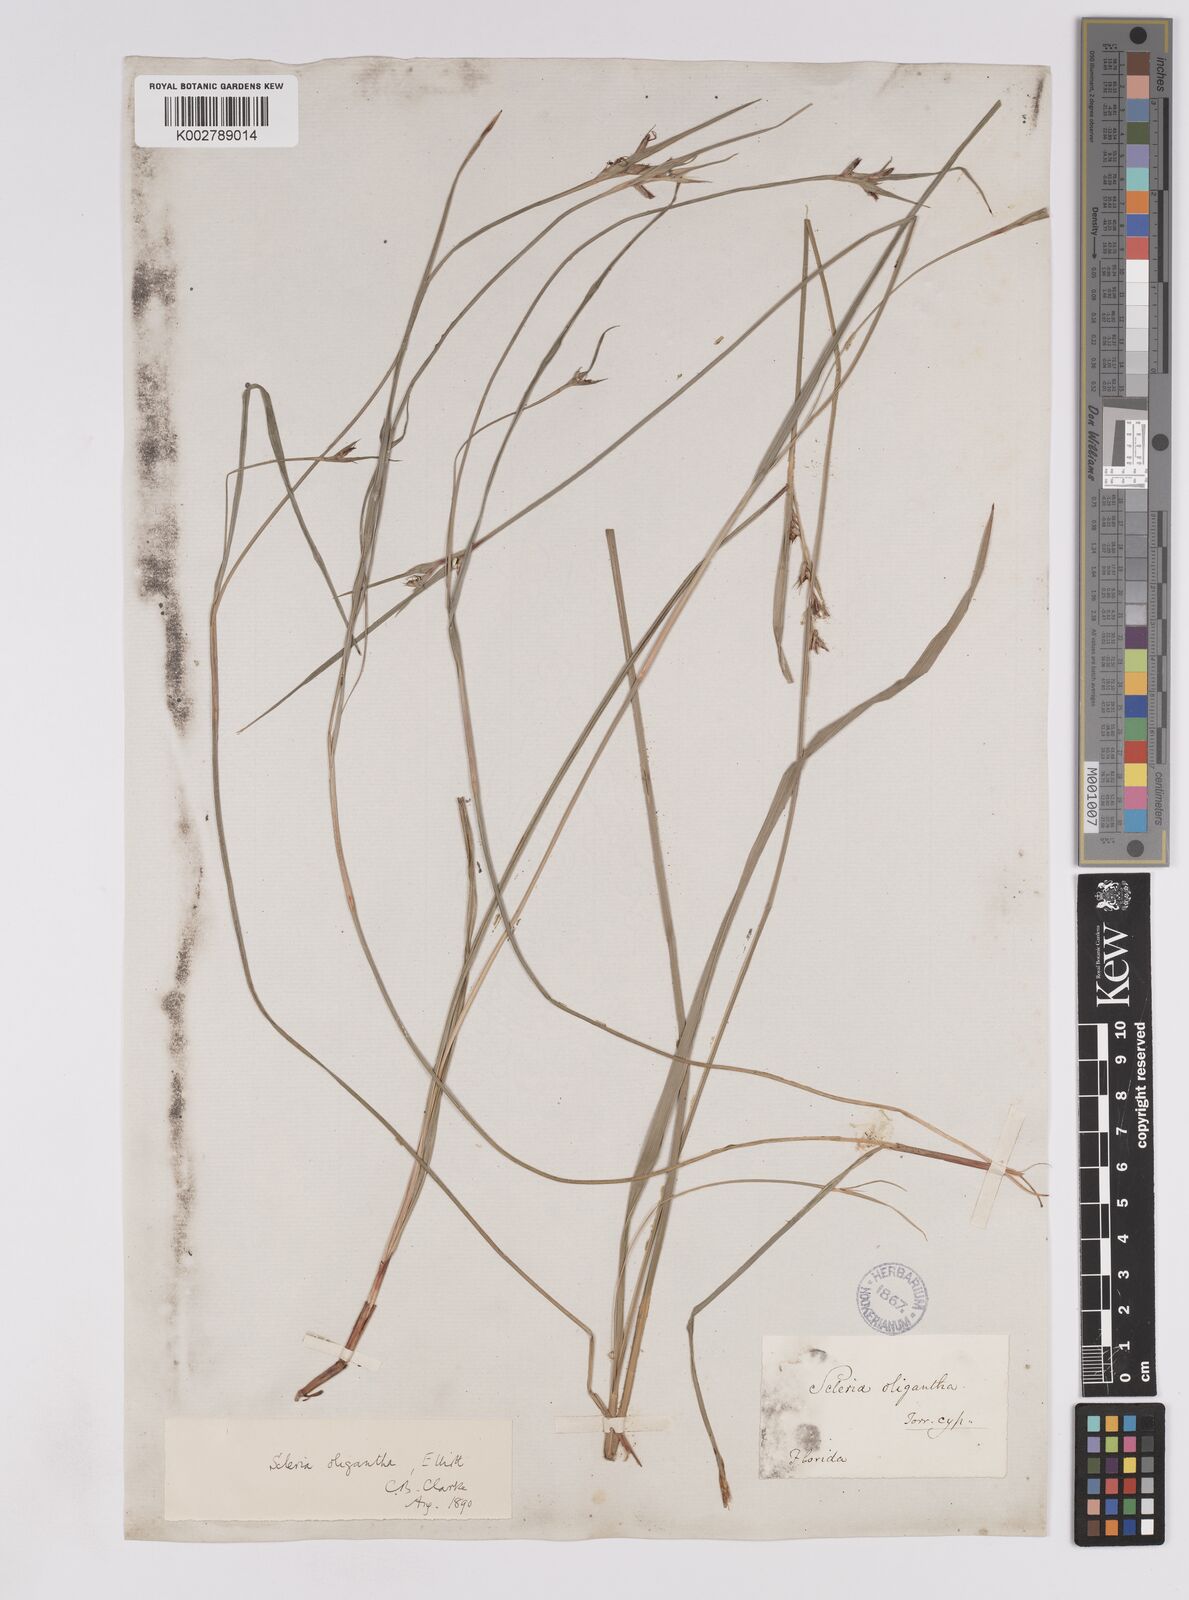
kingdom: Plantae
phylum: Tracheophyta
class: Liliopsida
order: Poales
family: Cyperaceae
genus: Scleria
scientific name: Scleria oligantha
